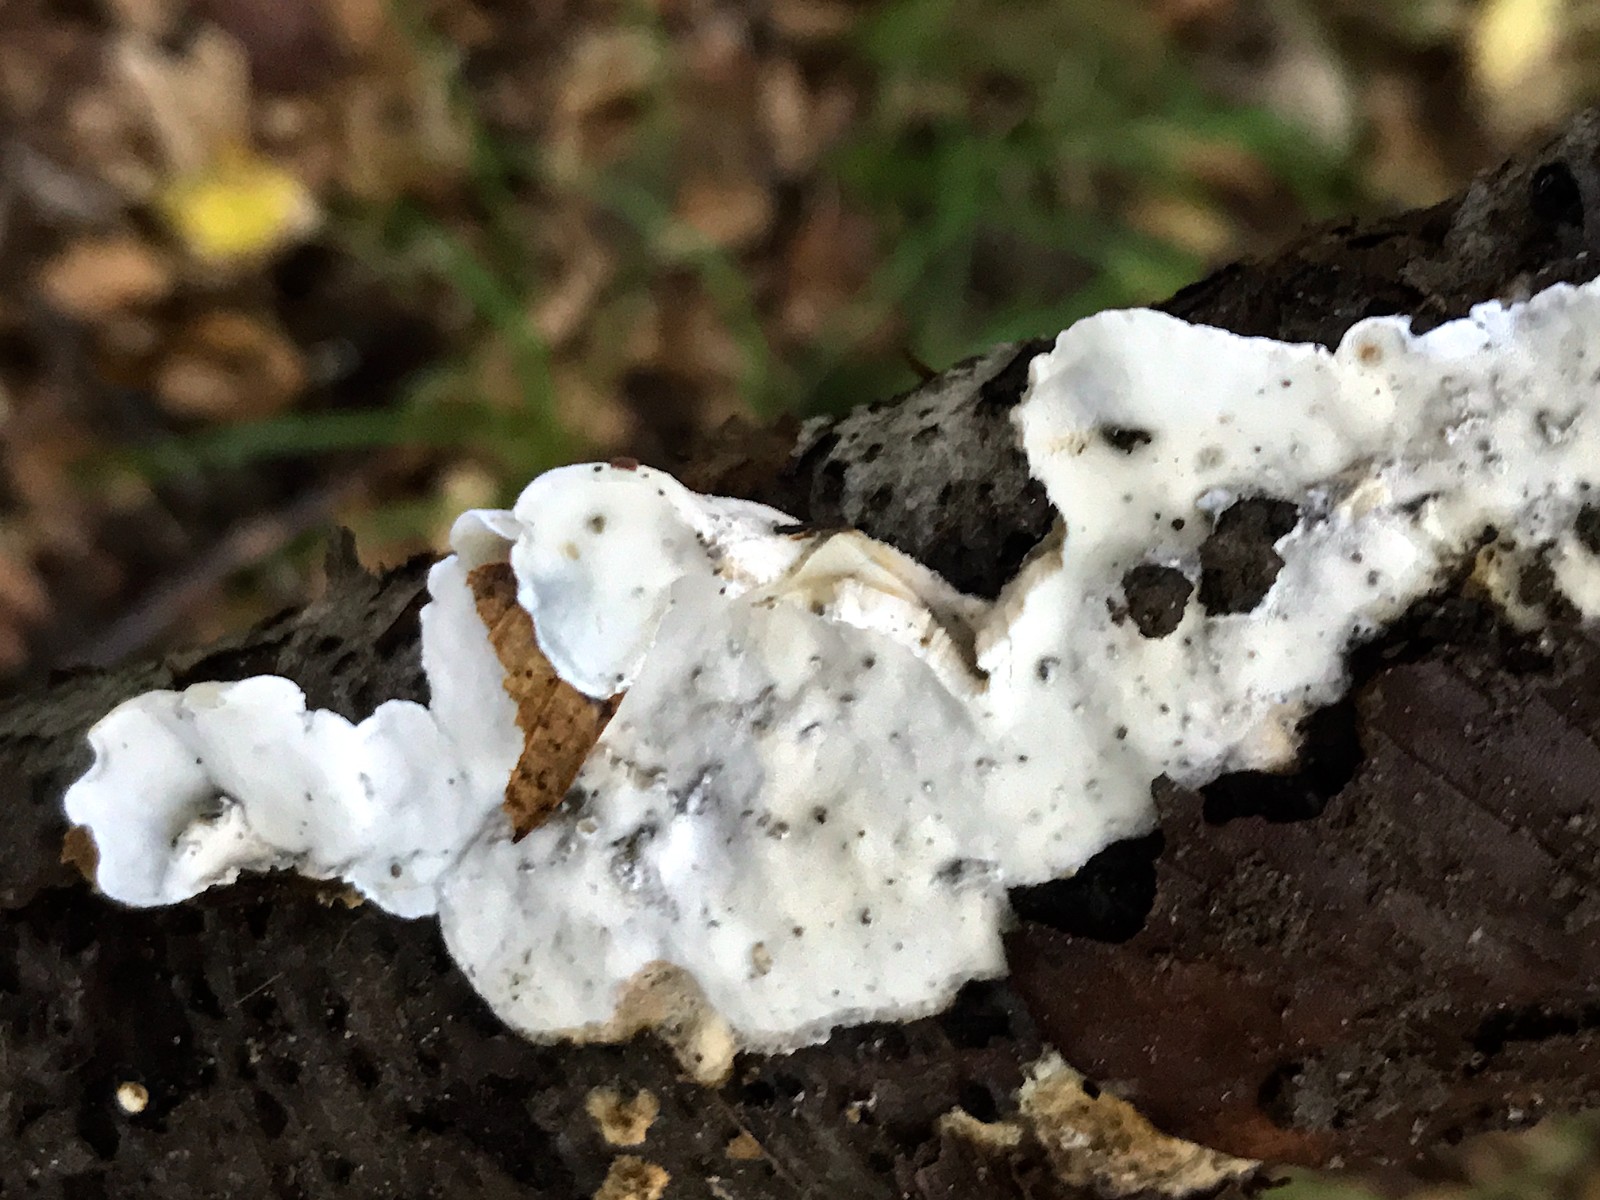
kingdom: Fungi
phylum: Basidiomycota
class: Agaricomycetes
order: Polyporales
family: Incrustoporiaceae
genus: Skeletocutis
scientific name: Skeletocutis nemoralis
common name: stor krystalporesvamp
